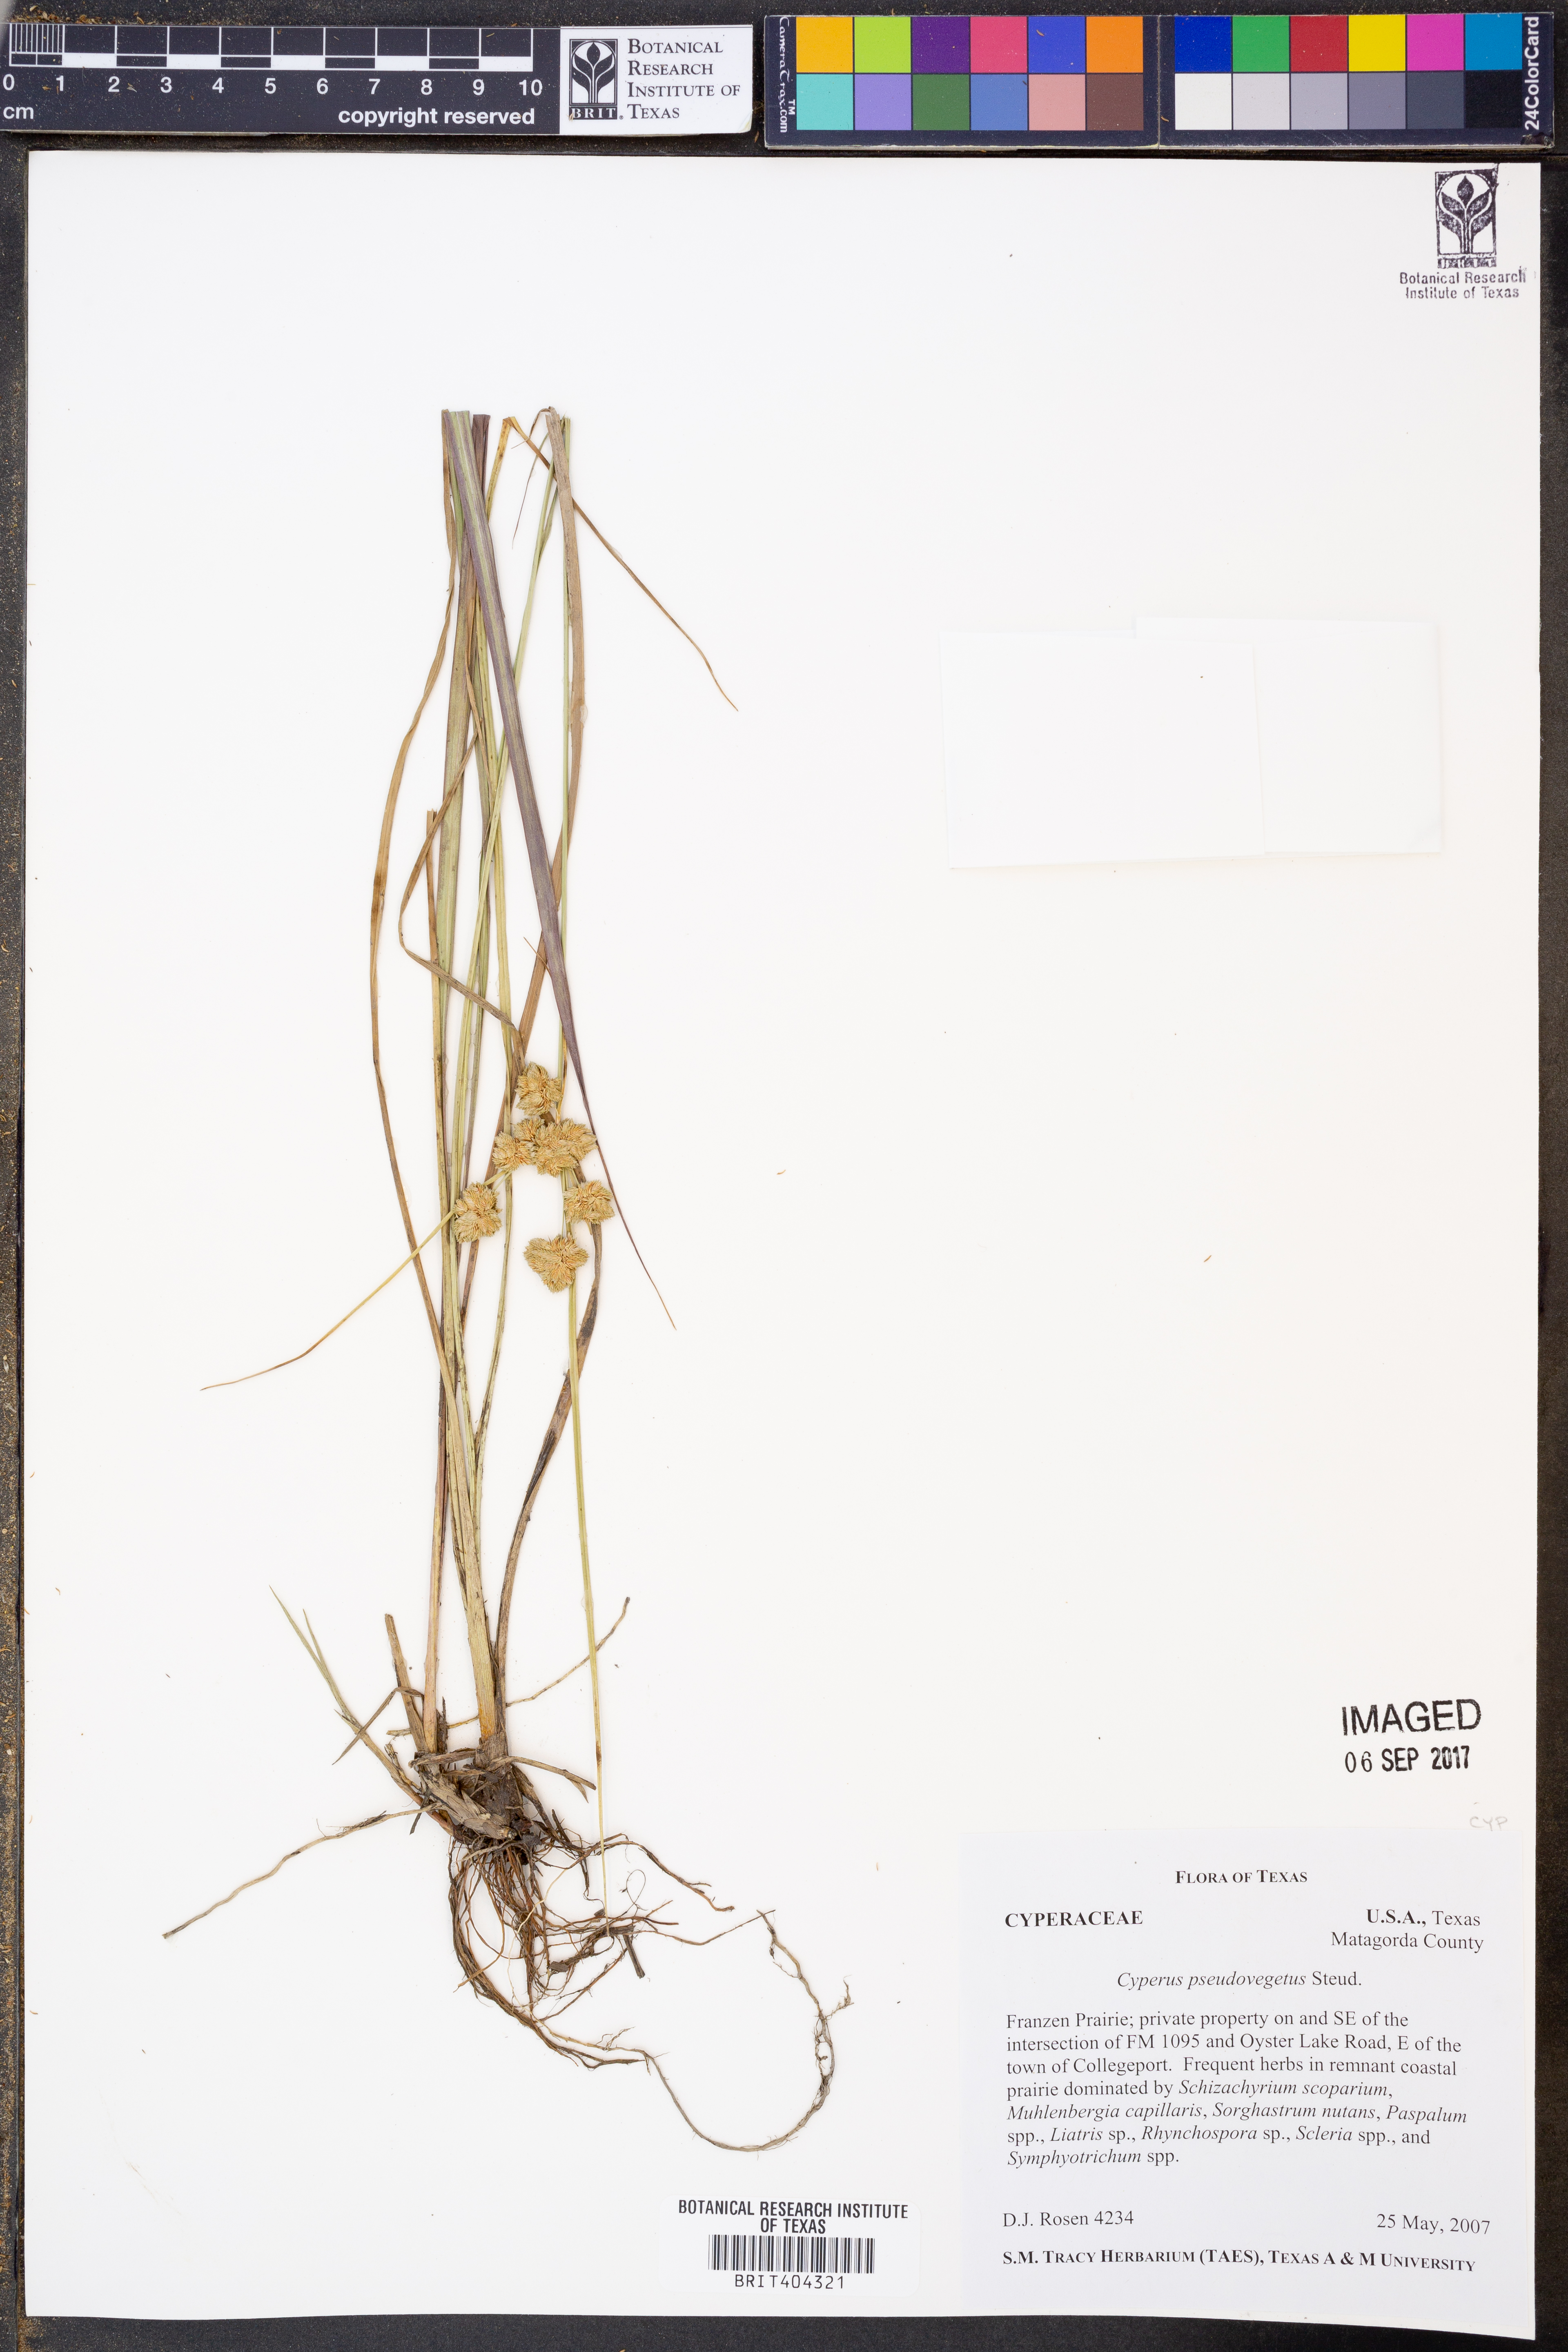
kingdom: Plantae
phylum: Tracheophyta
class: Liliopsida
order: Poales
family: Cyperaceae
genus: Cyperus
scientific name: Cyperus pseudovegetus
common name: Marsh flat sedge
